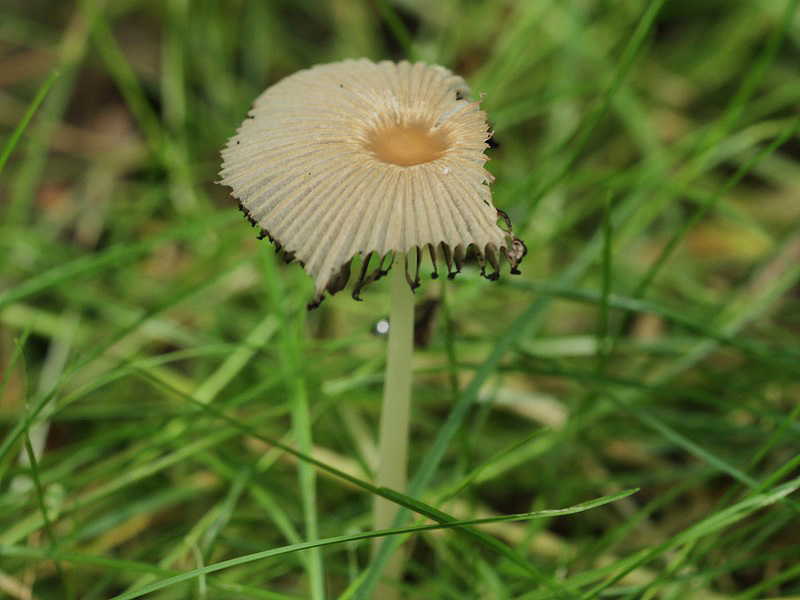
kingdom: Fungi
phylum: Basidiomycota
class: Agaricomycetes
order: Agaricales
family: Psathyrellaceae
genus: Parasola
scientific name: Parasola kuehneri
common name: skygge-hjulhat
